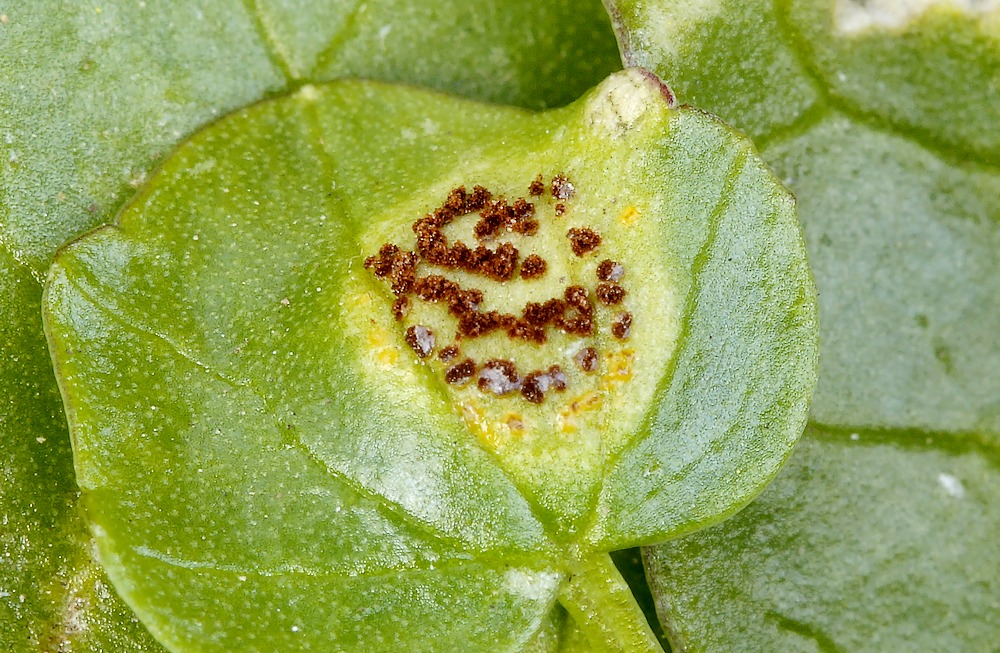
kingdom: Fungi
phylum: Basidiomycota
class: Pucciniomycetes
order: Pucciniales
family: Pucciniaceae
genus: Uromyces
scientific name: Uromyces ficariae
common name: vorterod-encellerust
